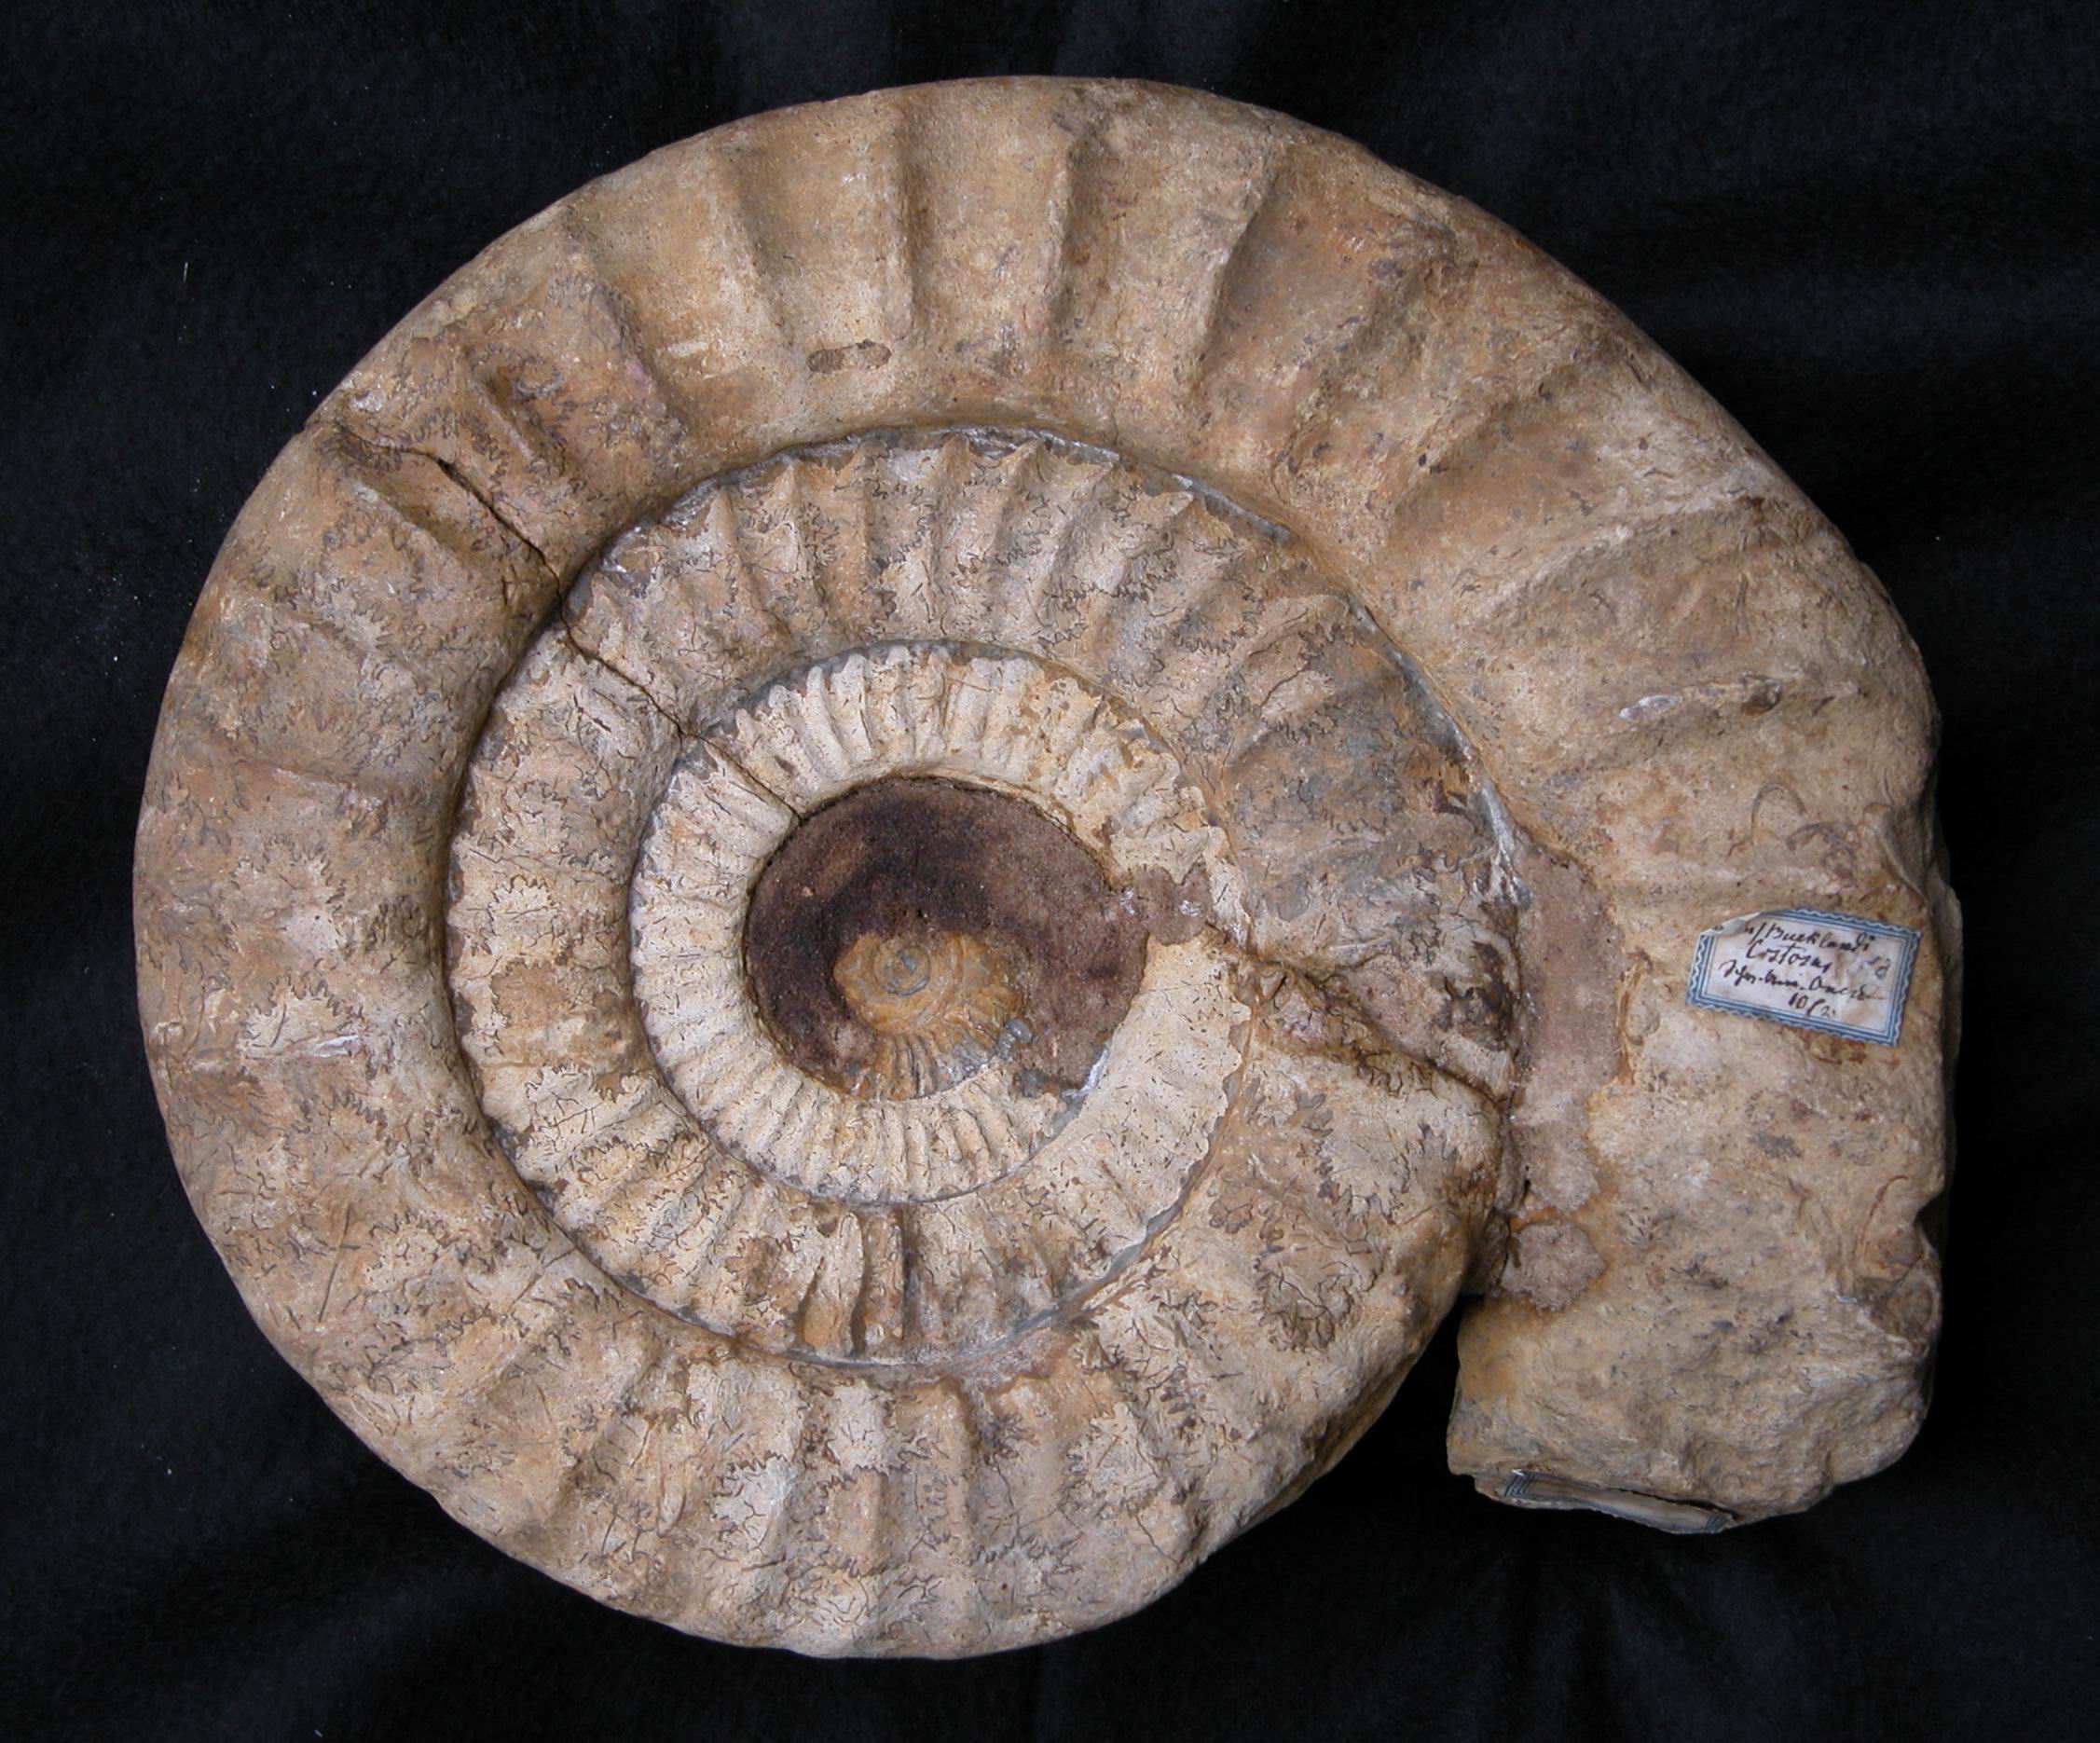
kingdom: Animalia
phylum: Mollusca
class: Cephalopoda
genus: Ammonites
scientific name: Ammonites bucklandi
